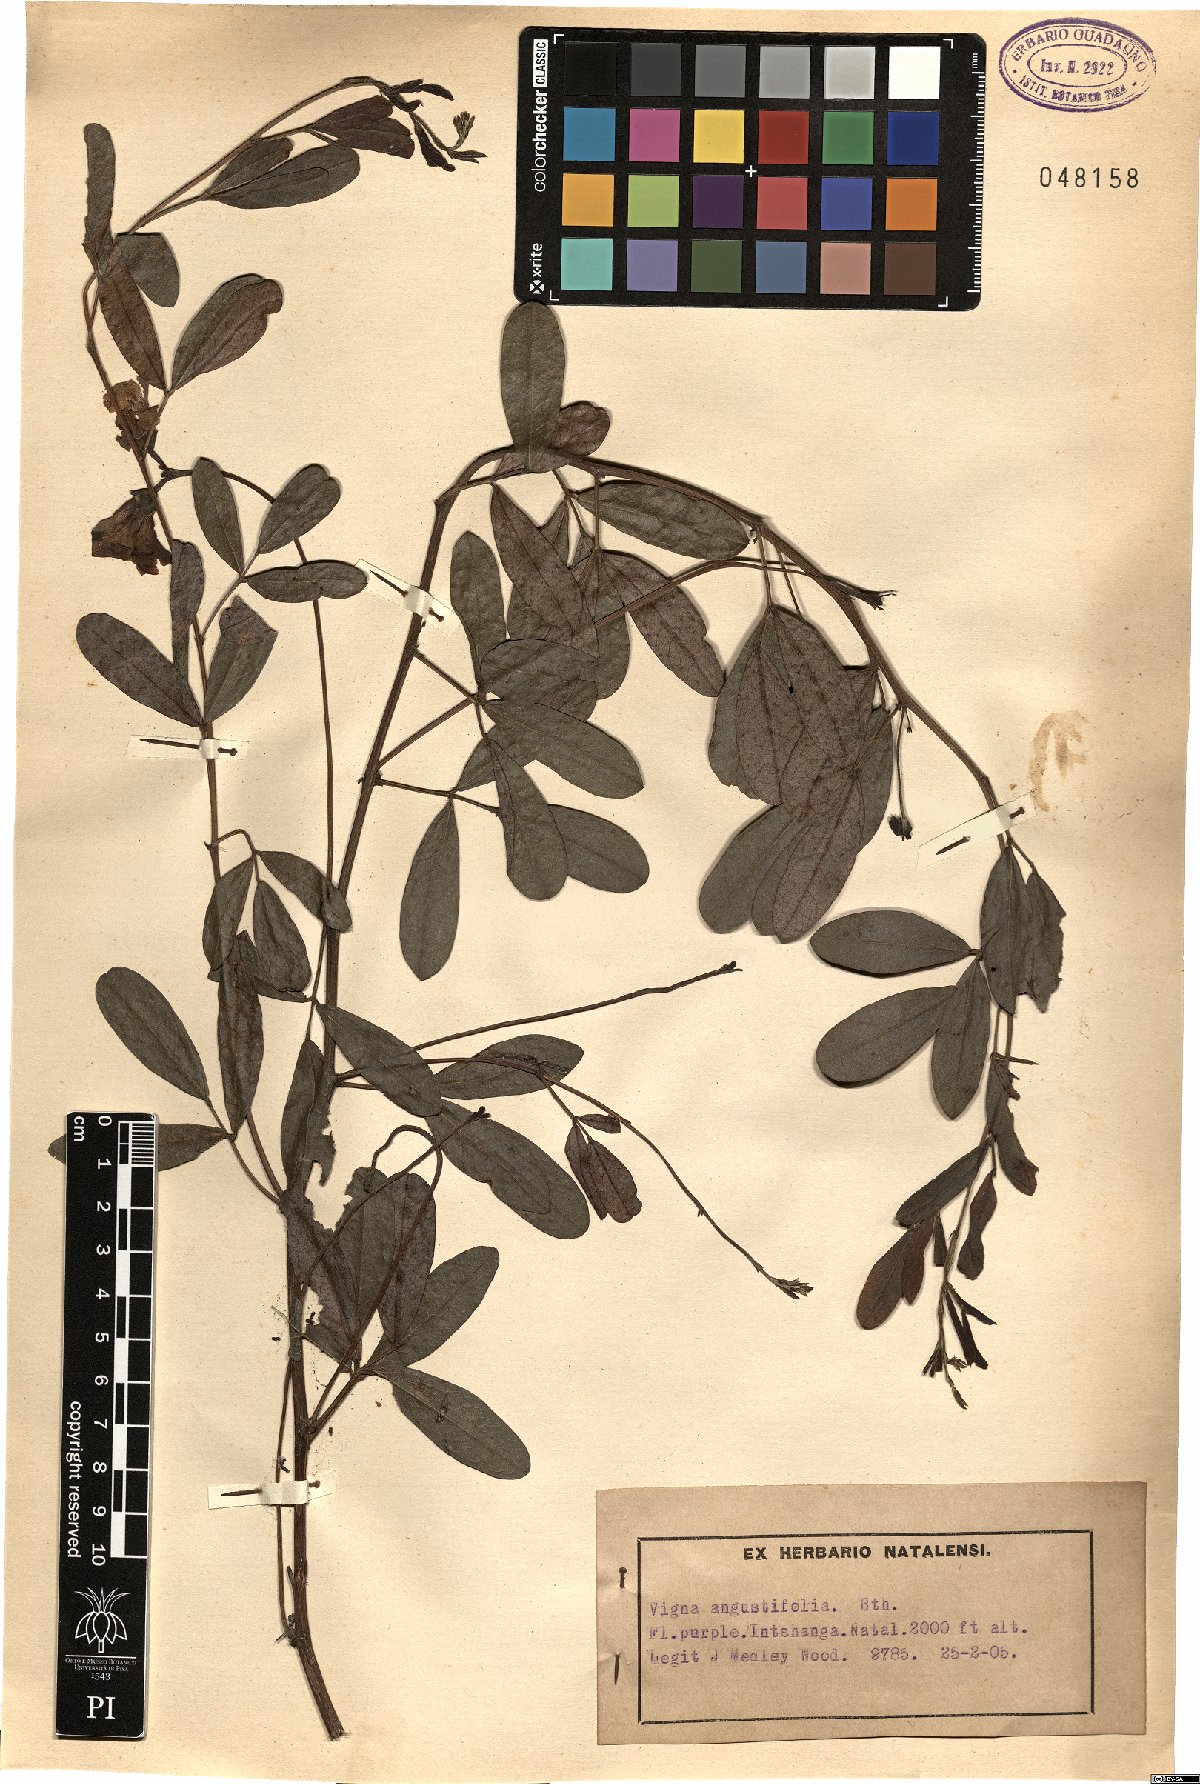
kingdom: Plantae
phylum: Tracheophyta
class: Magnoliopsida
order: Fabales
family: Fabaceae
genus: Sphenostylis
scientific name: Sphenostylis angustifolia
